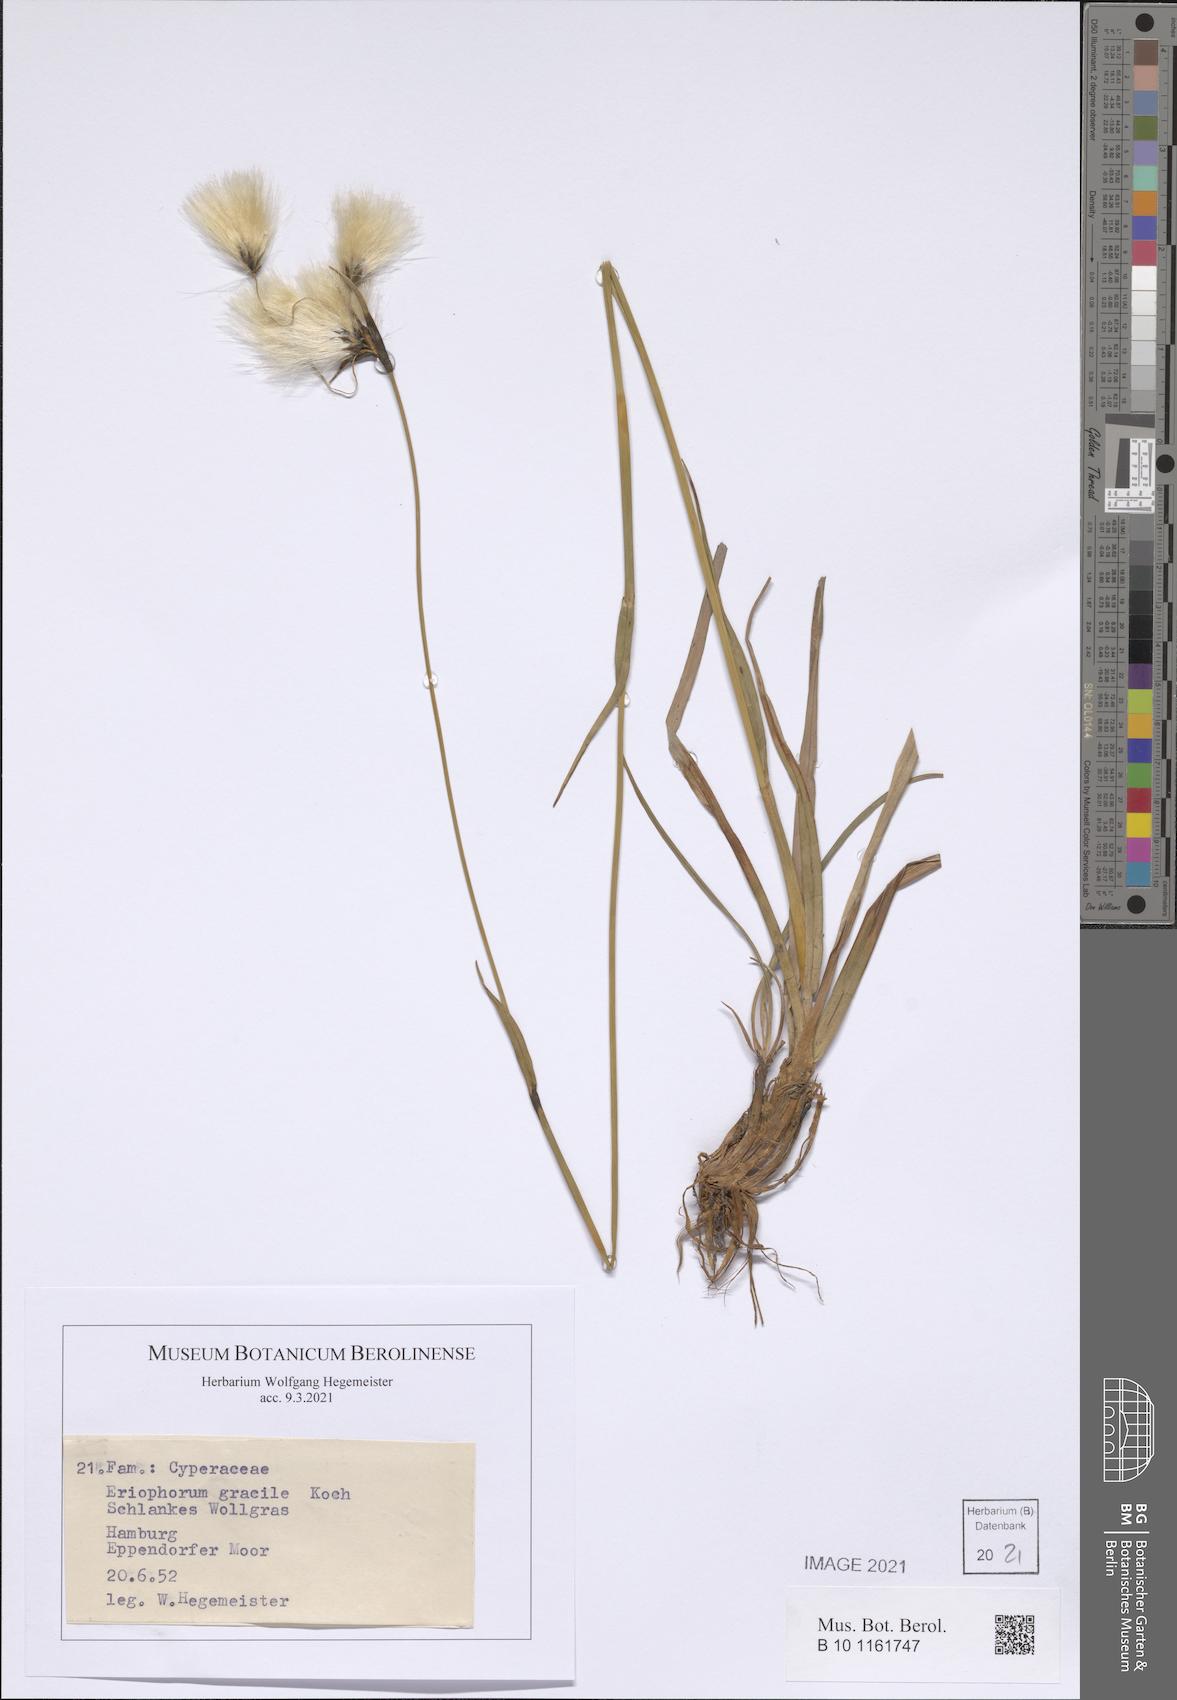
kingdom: Plantae
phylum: Tracheophyta
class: Liliopsida
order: Poales
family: Cyperaceae
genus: Eriophorum
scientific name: Eriophorum gracile
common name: Slender cottongrass
